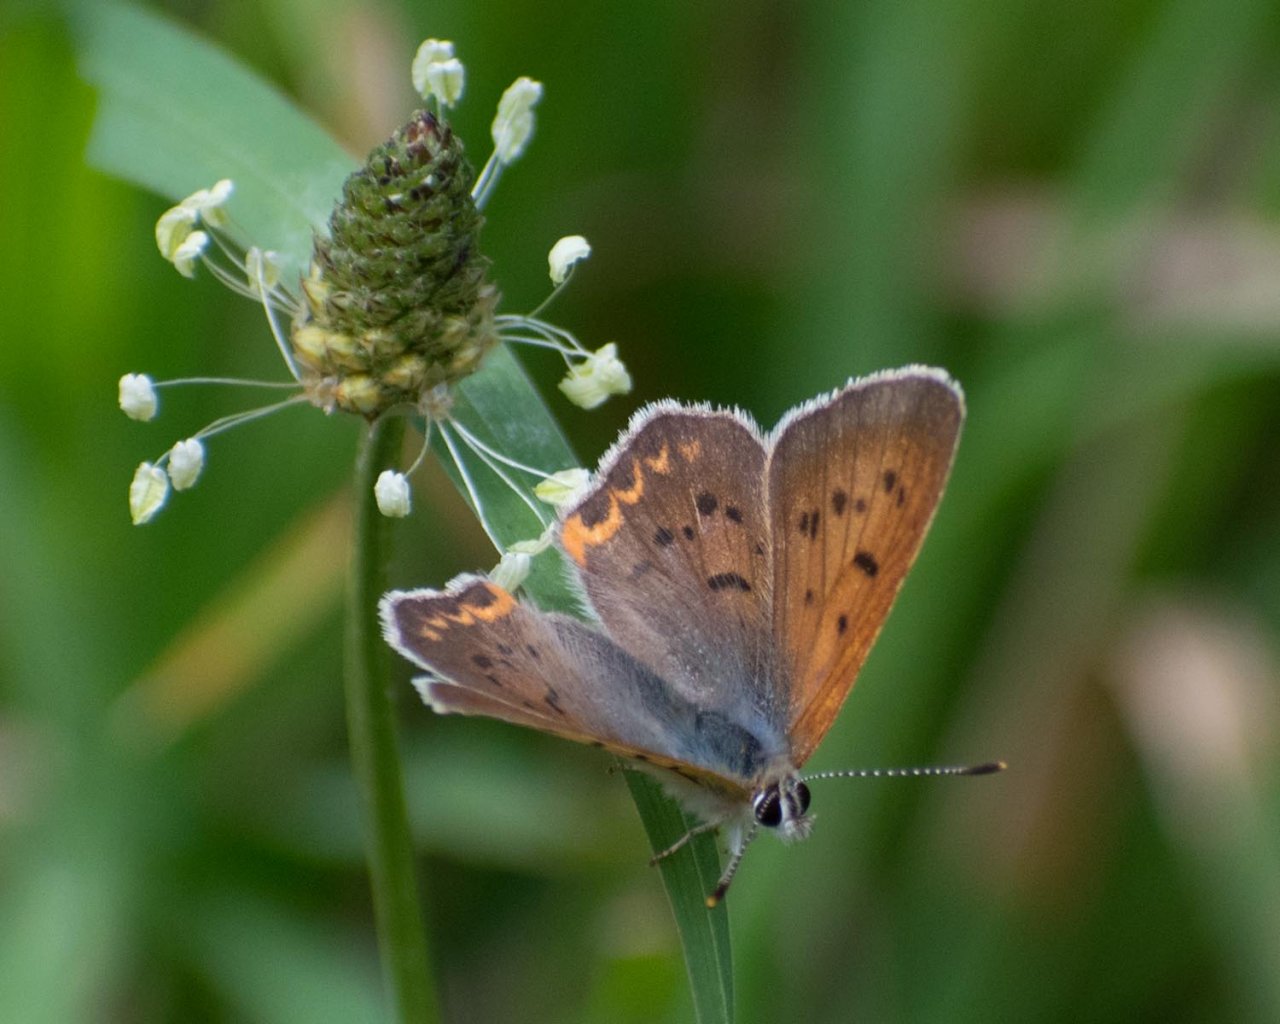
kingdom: Animalia
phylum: Arthropoda
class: Insecta
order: Lepidoptera
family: Sesiidae
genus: Sesia
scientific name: Sesia Lycaena helloides
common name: Purplish Copper
